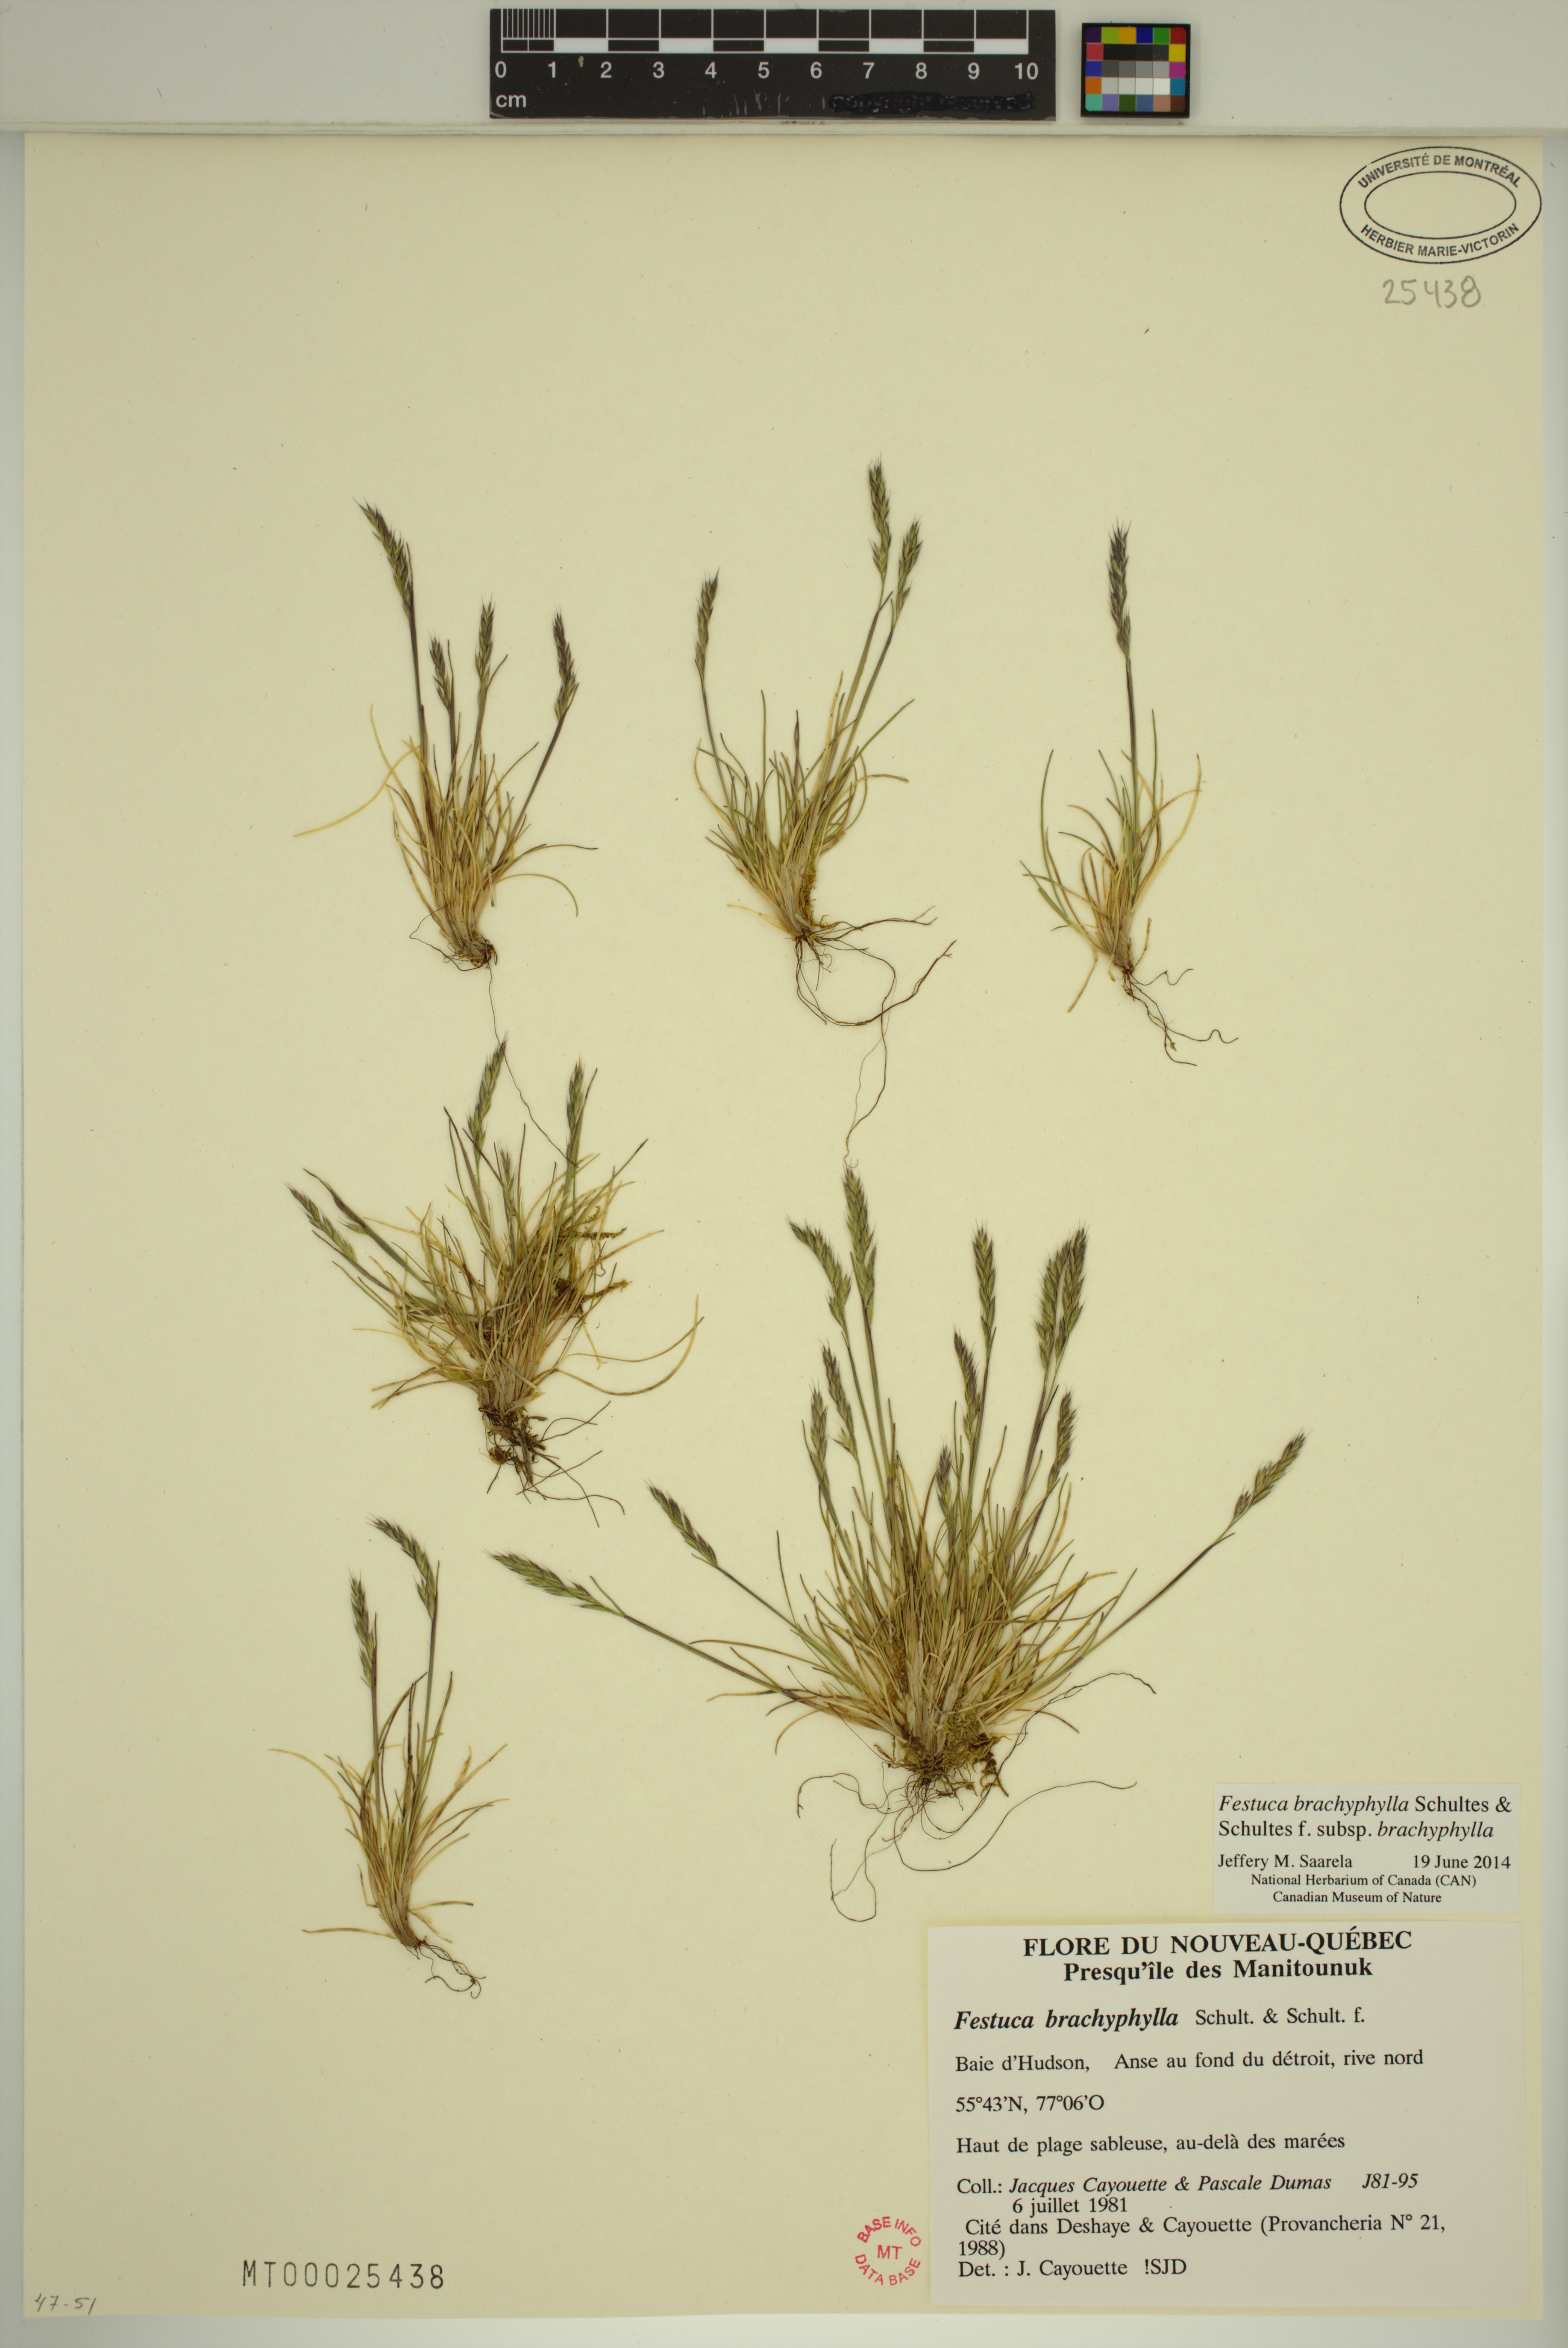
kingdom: Plantae
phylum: Tracheophyta
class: Liliopsida
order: Poales
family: Poaceae
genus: Festuca
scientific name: Festuca brachyphylla
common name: Alpine fescue
